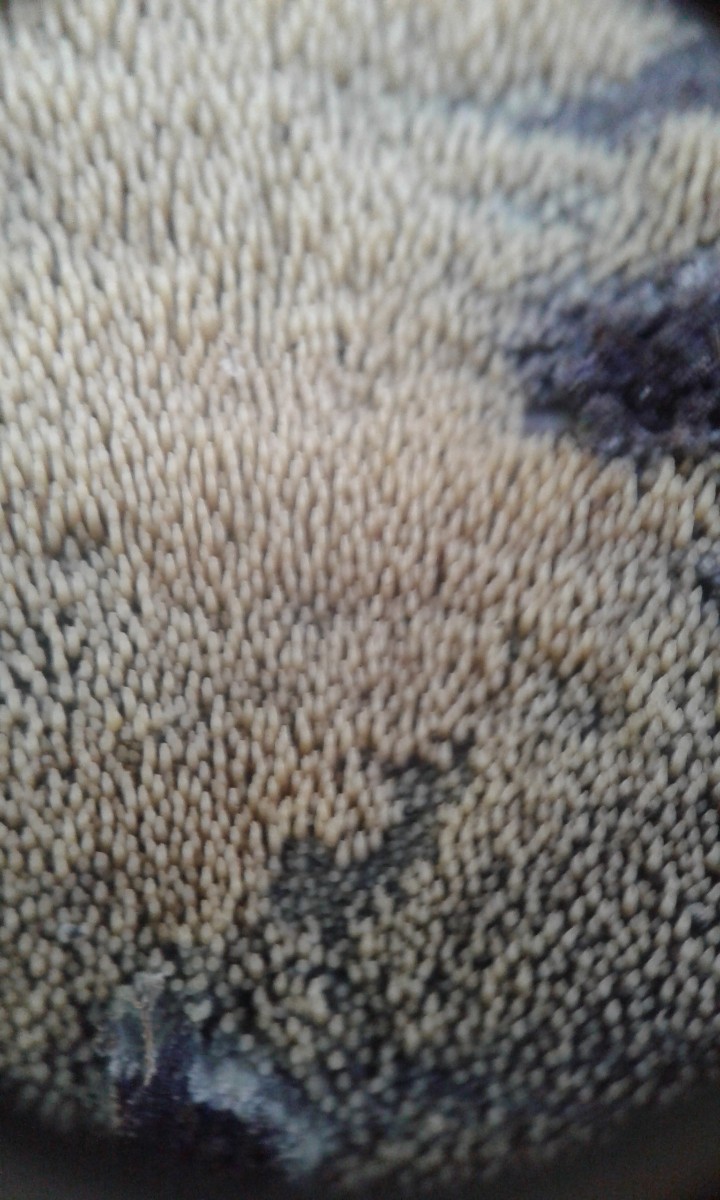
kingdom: Fungi
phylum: Basidiomycota
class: Agaricomycetes
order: Polyporales
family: Meruliaceae
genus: Mycoacia
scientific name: Mycoacia
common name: vokspig
